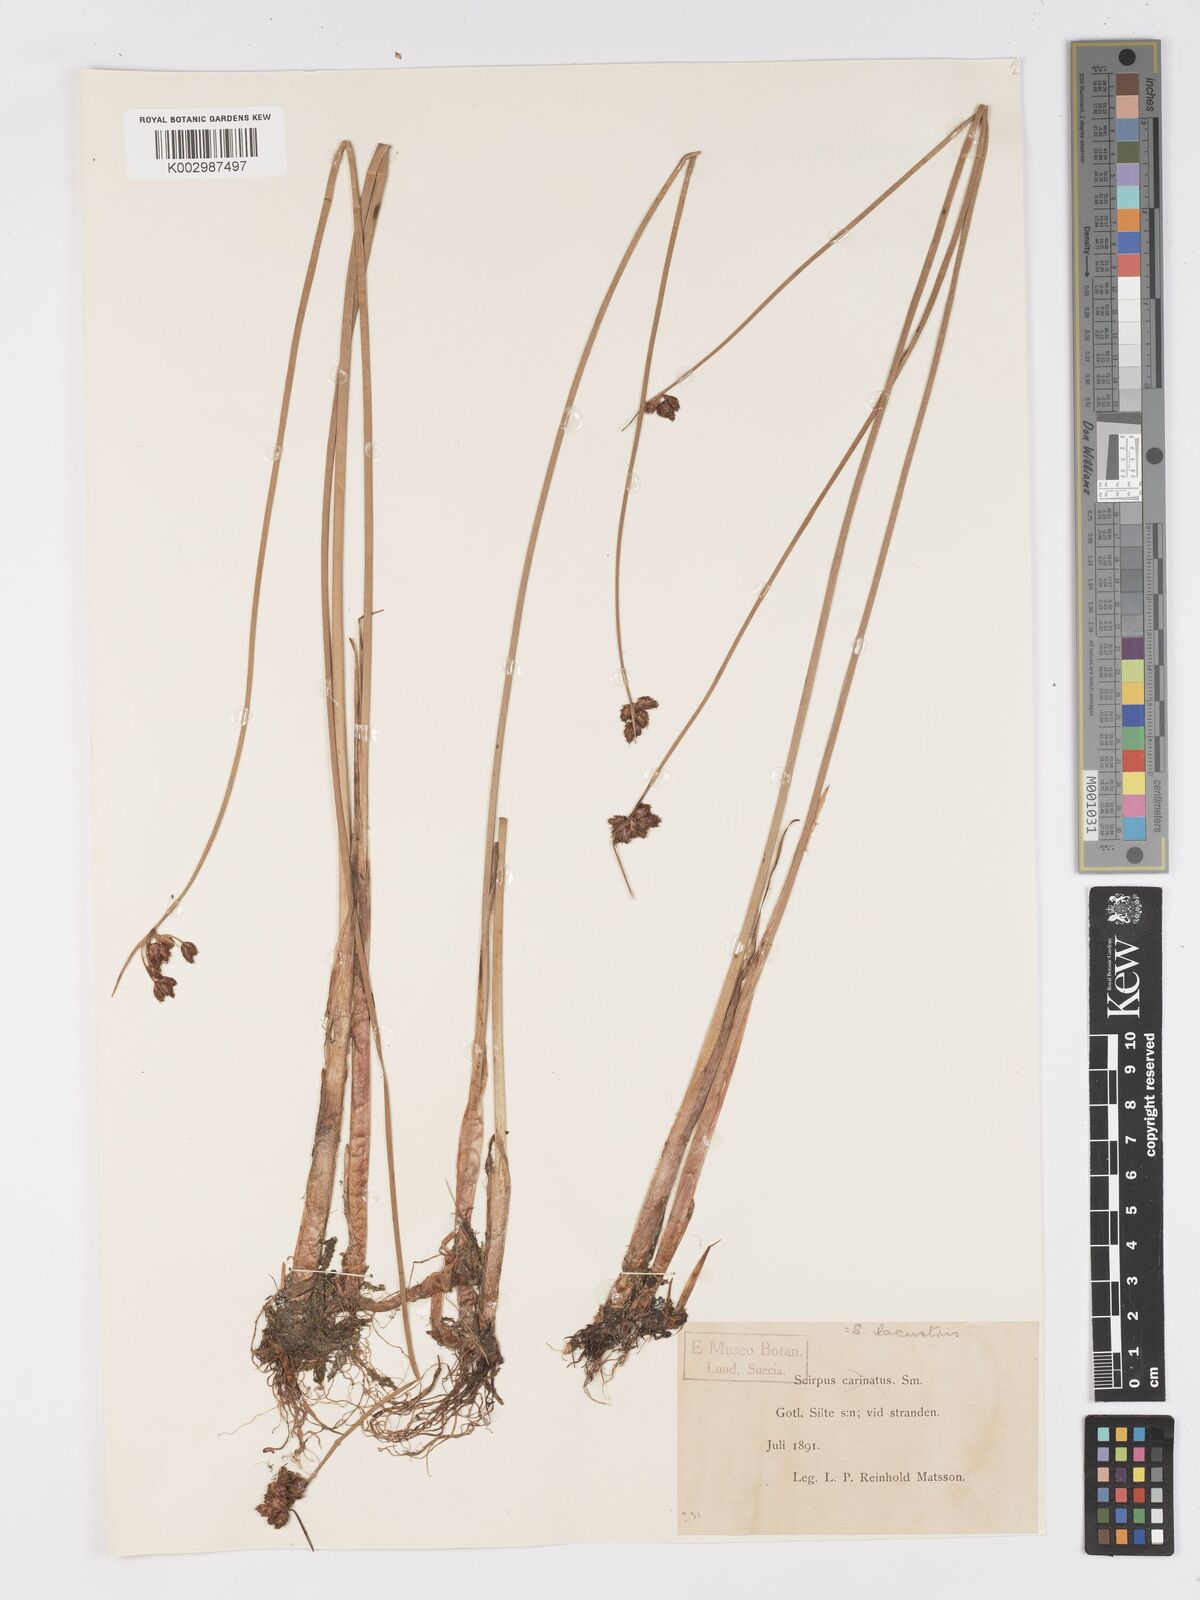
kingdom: Plantae
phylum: Tracheophyta
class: Liliopsida
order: Poales
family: Cyperaceae
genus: Schoenoplectus
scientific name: Schoenoplectus lacustris
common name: Common club-rush
